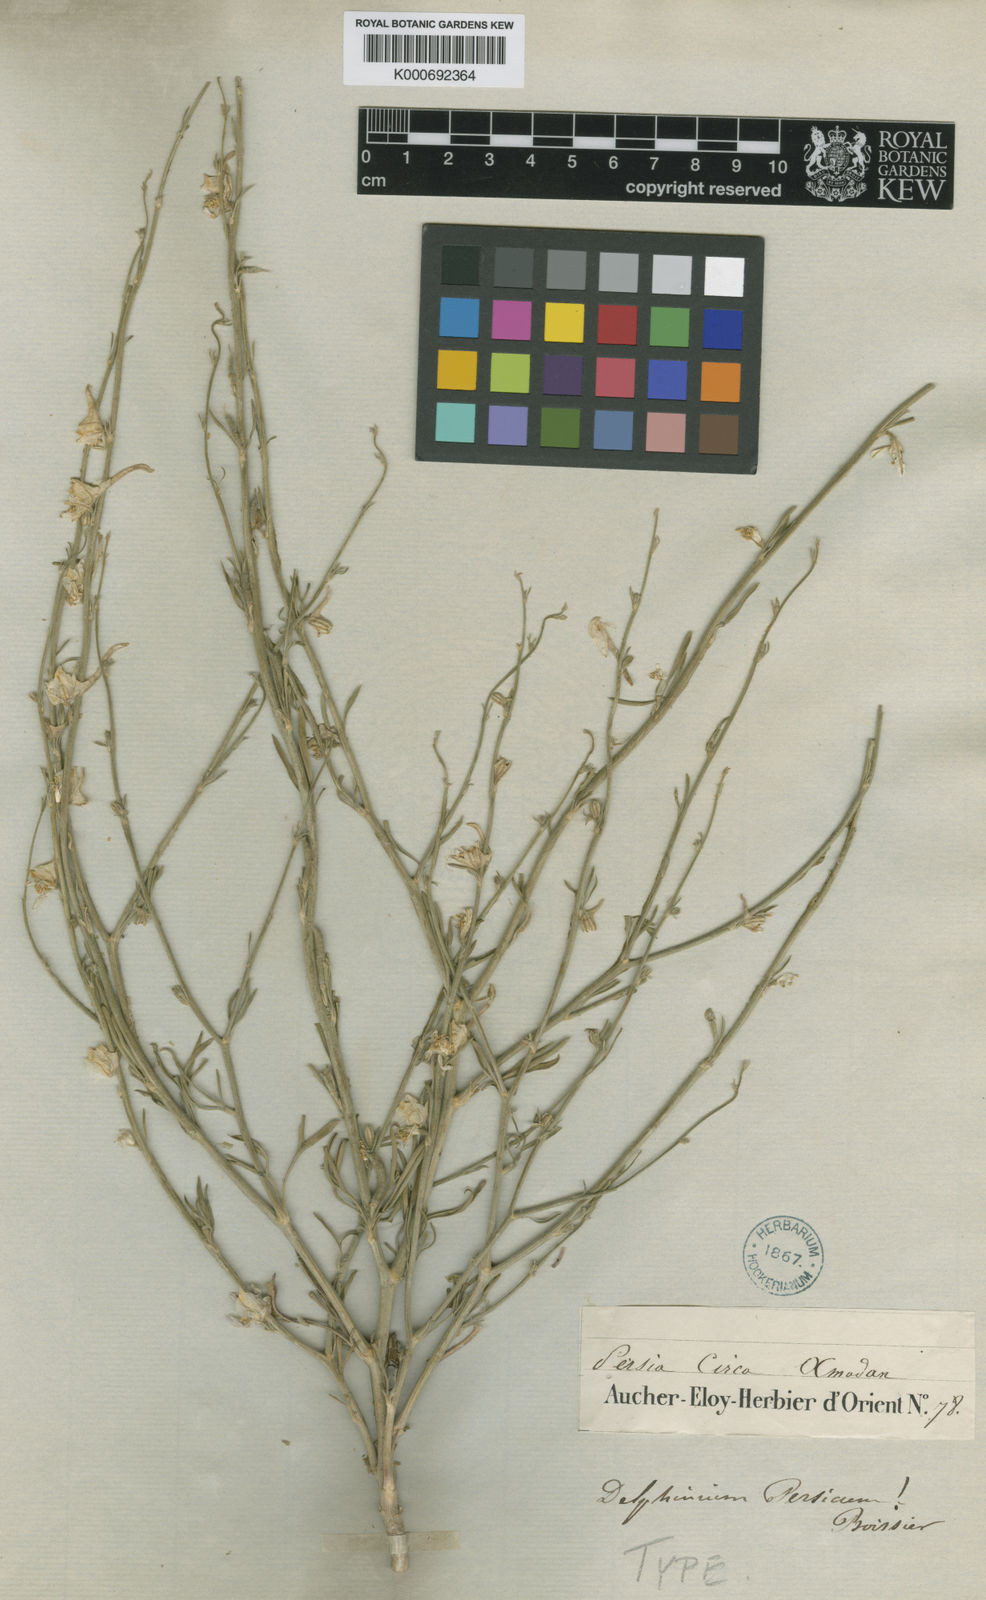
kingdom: Plantae
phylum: Tracheophyta
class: Magnoliopsida
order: Ranunculales
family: Ranunculaceae
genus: Delphinium
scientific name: Delphinium persicum
